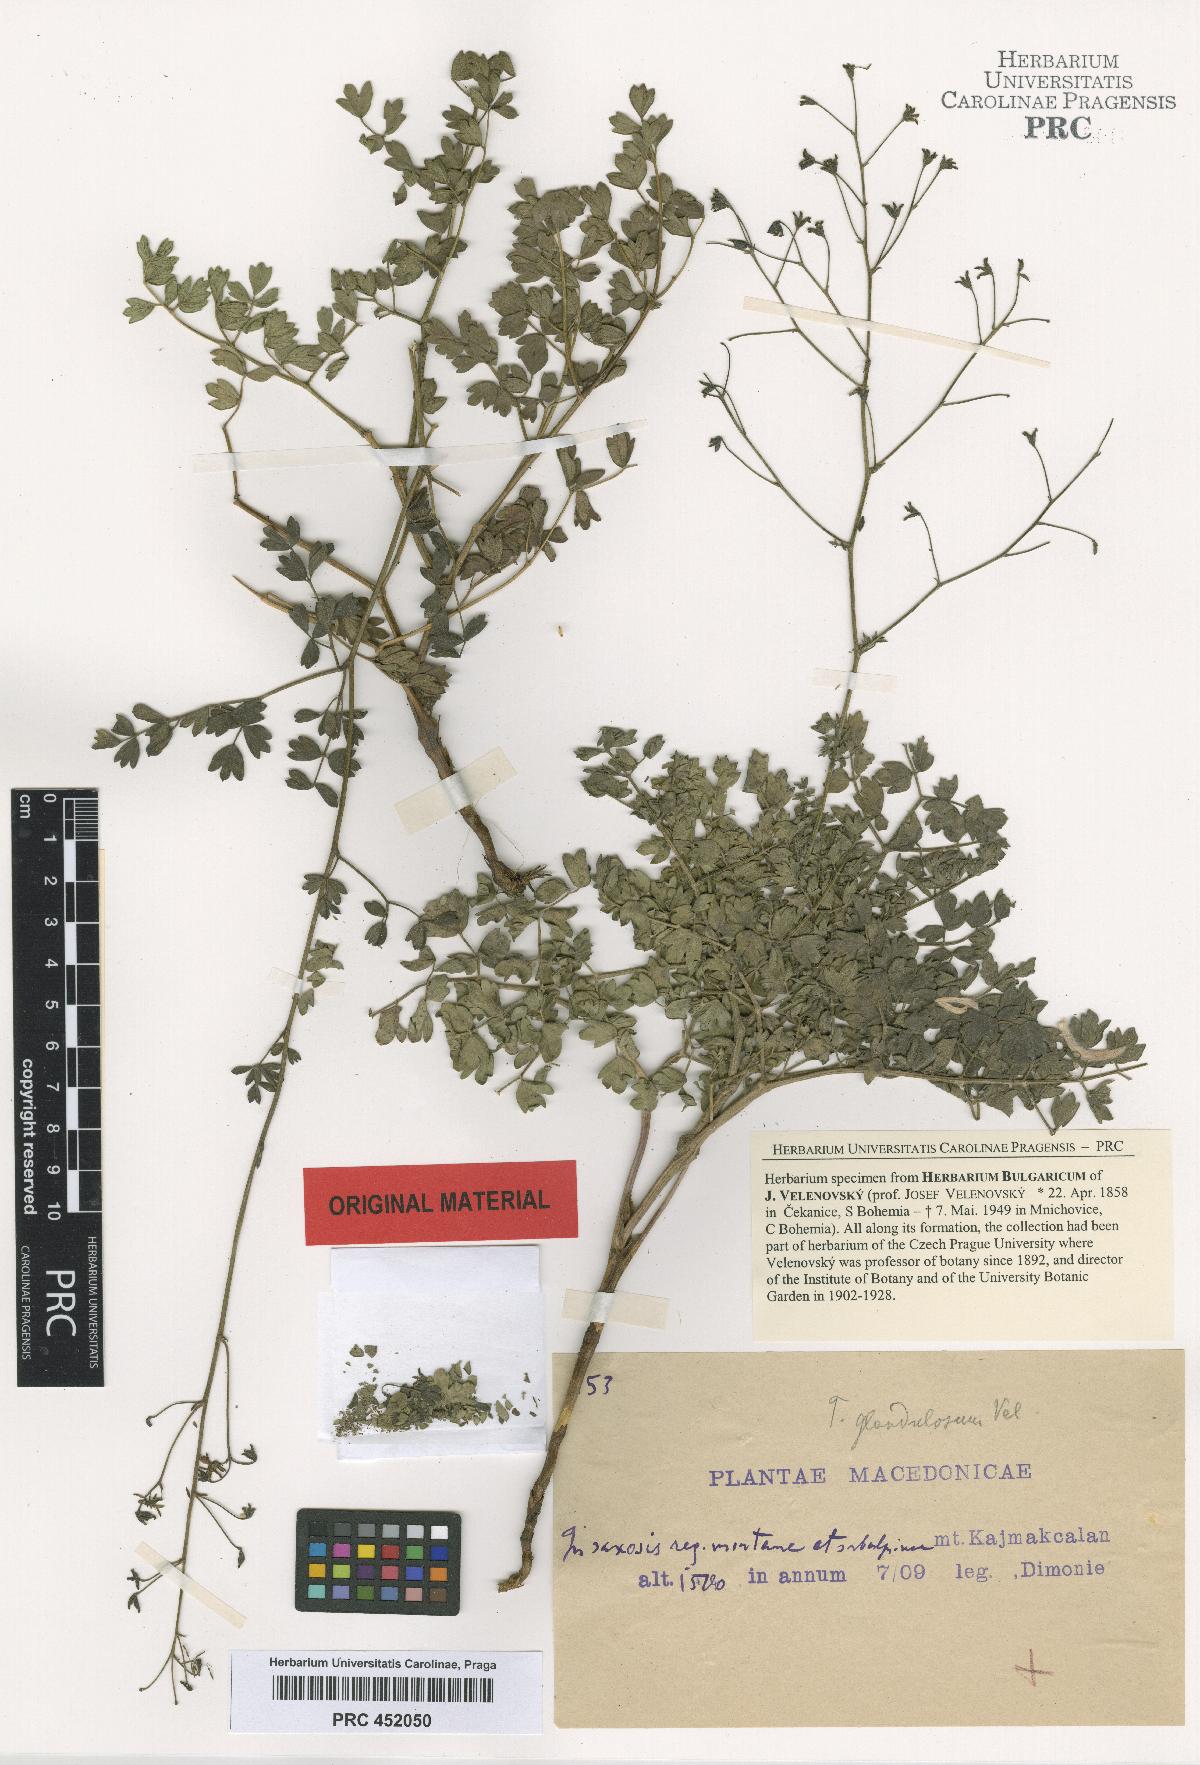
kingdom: Plantae
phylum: Tracheophyta
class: Magnoliopsida
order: Ranunculales
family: Ranunculaceae
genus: Thalictrum
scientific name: Thalictrum glandulosum
